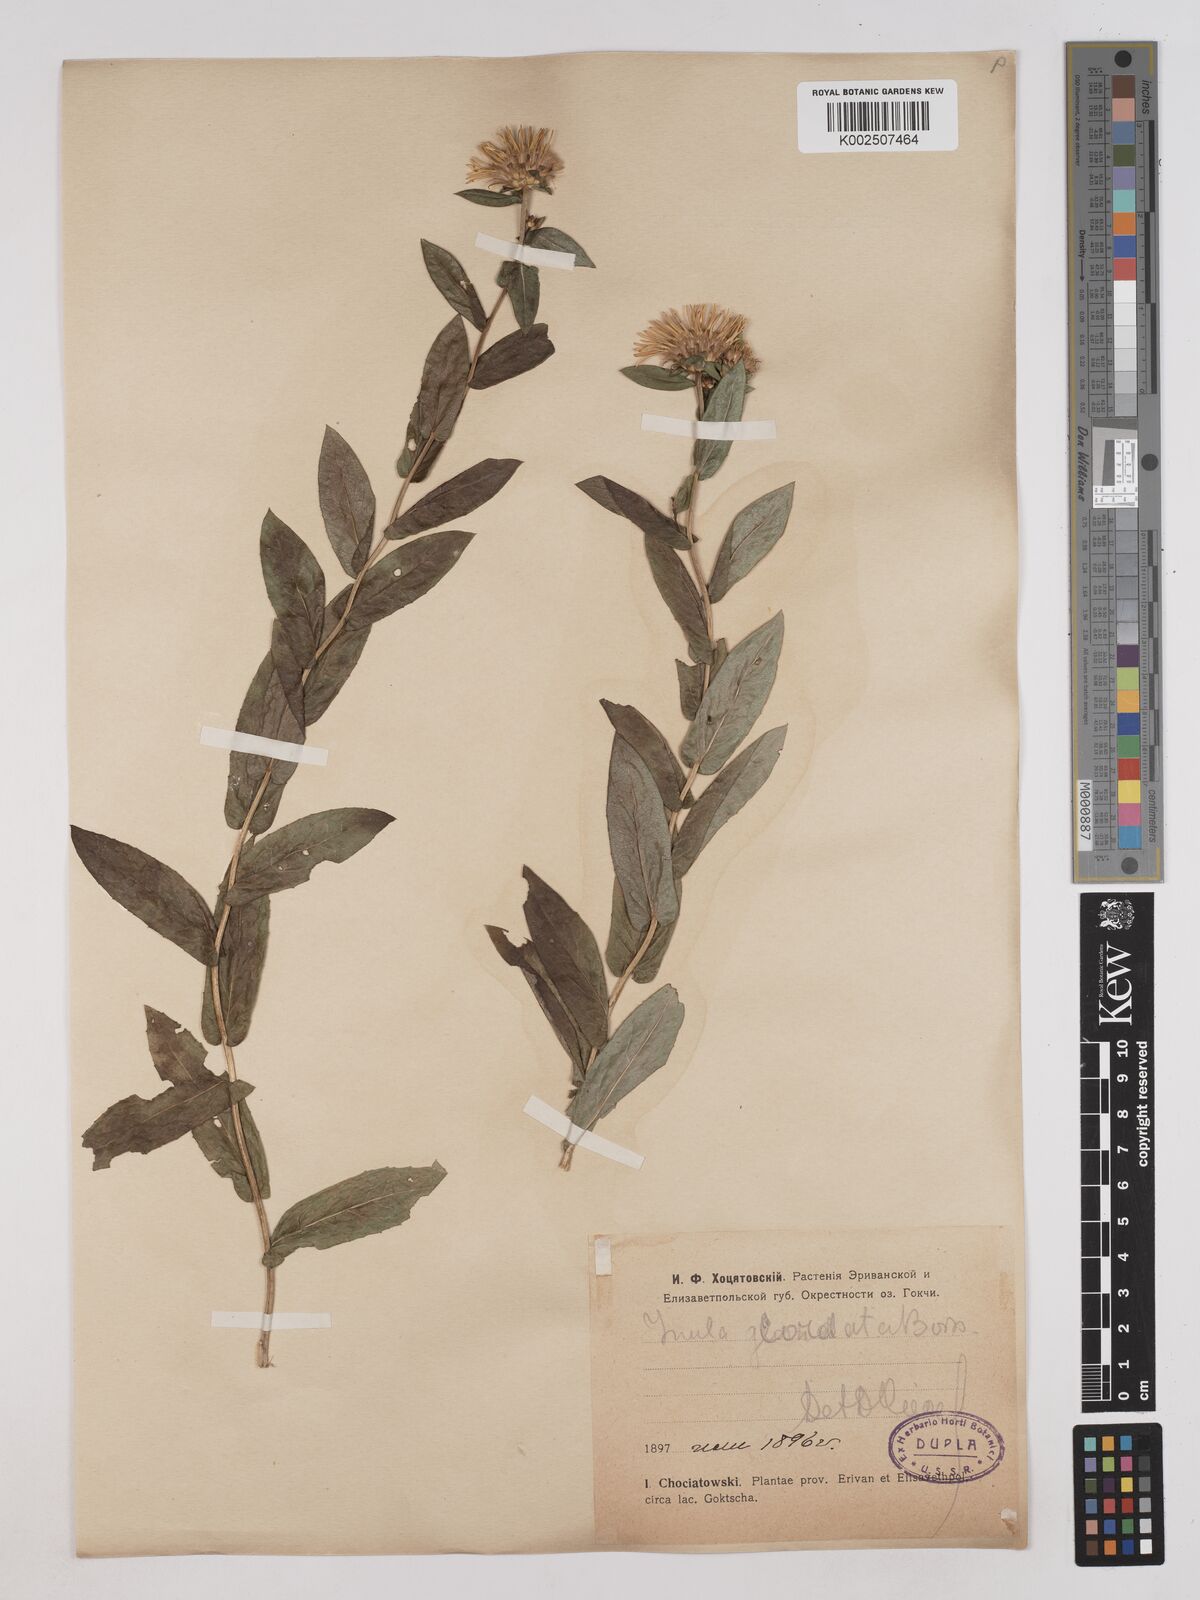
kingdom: Plantae
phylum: Tracheophyta
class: Magnoliopsida
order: Asterales
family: Asteraceae
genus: Pentanema
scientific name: Pentanema salicinum
